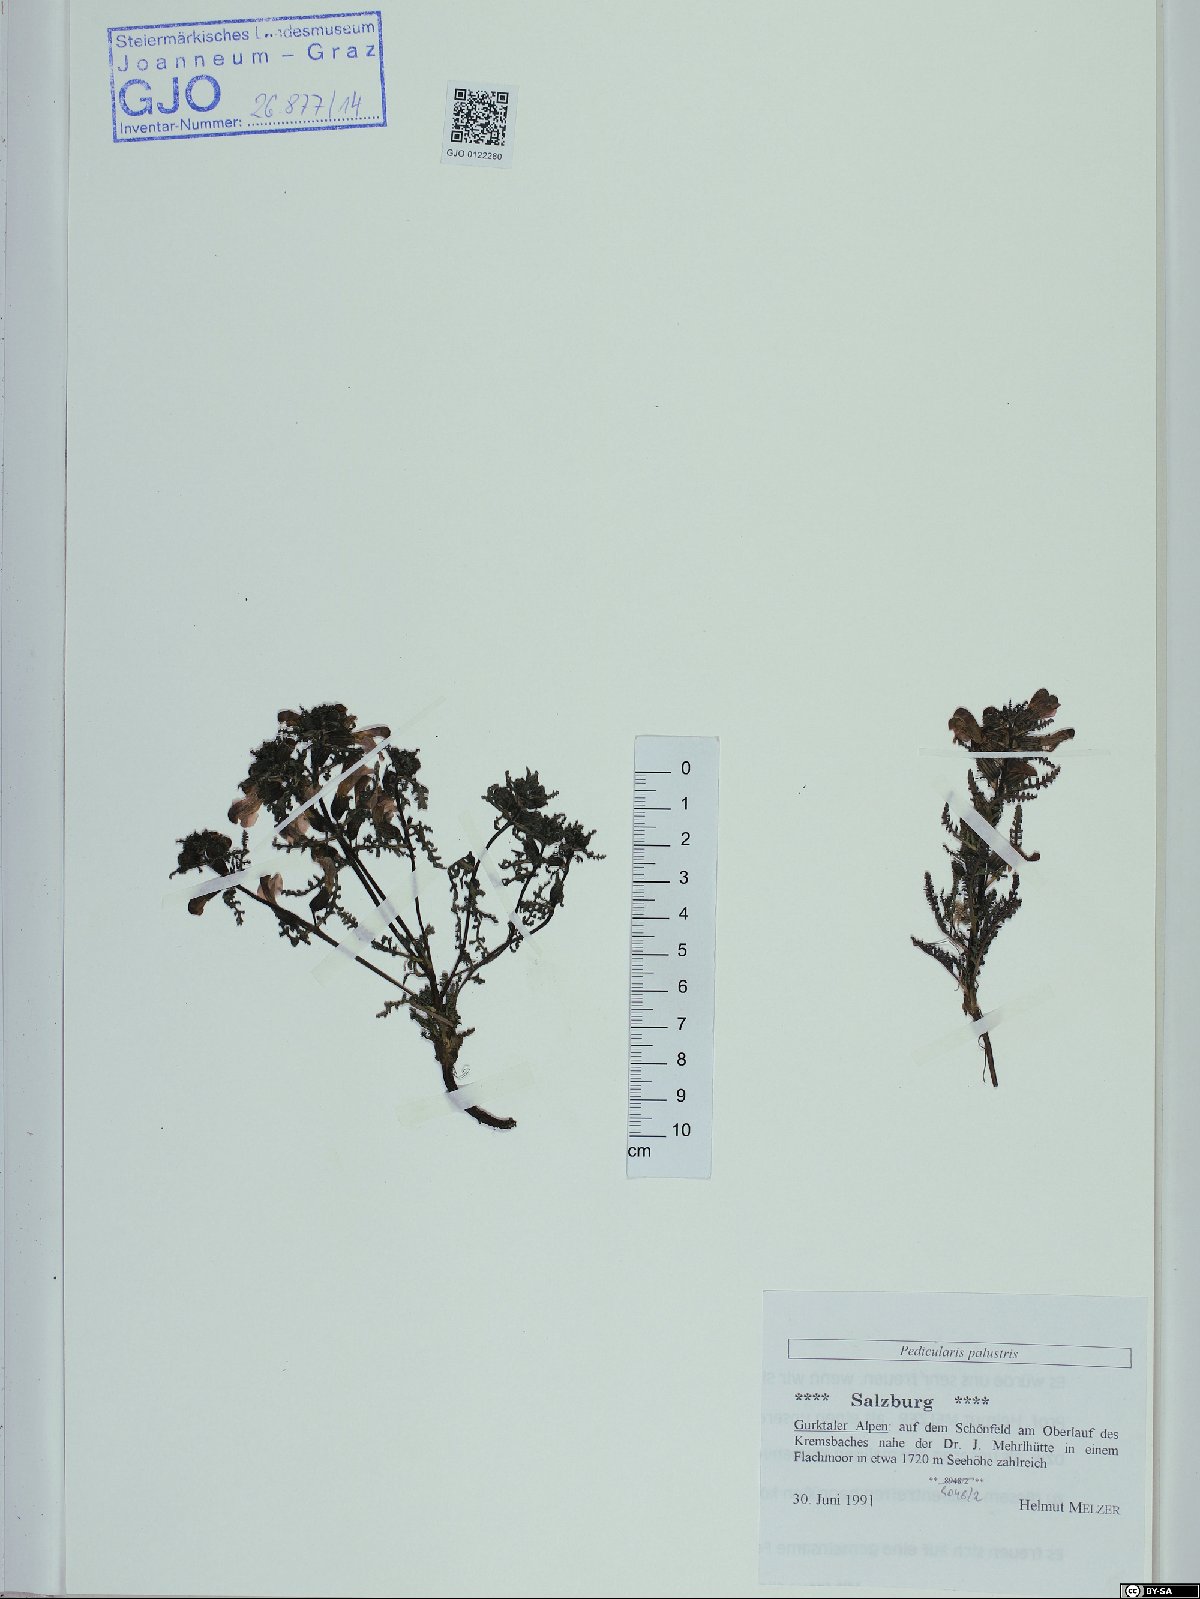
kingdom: Plantae
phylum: Tracheophyta
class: Magnoliopsida
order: Lamiales
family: Orobanchaceae
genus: Pedicularis
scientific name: Pedicularis palustris
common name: Marsh lousewort
